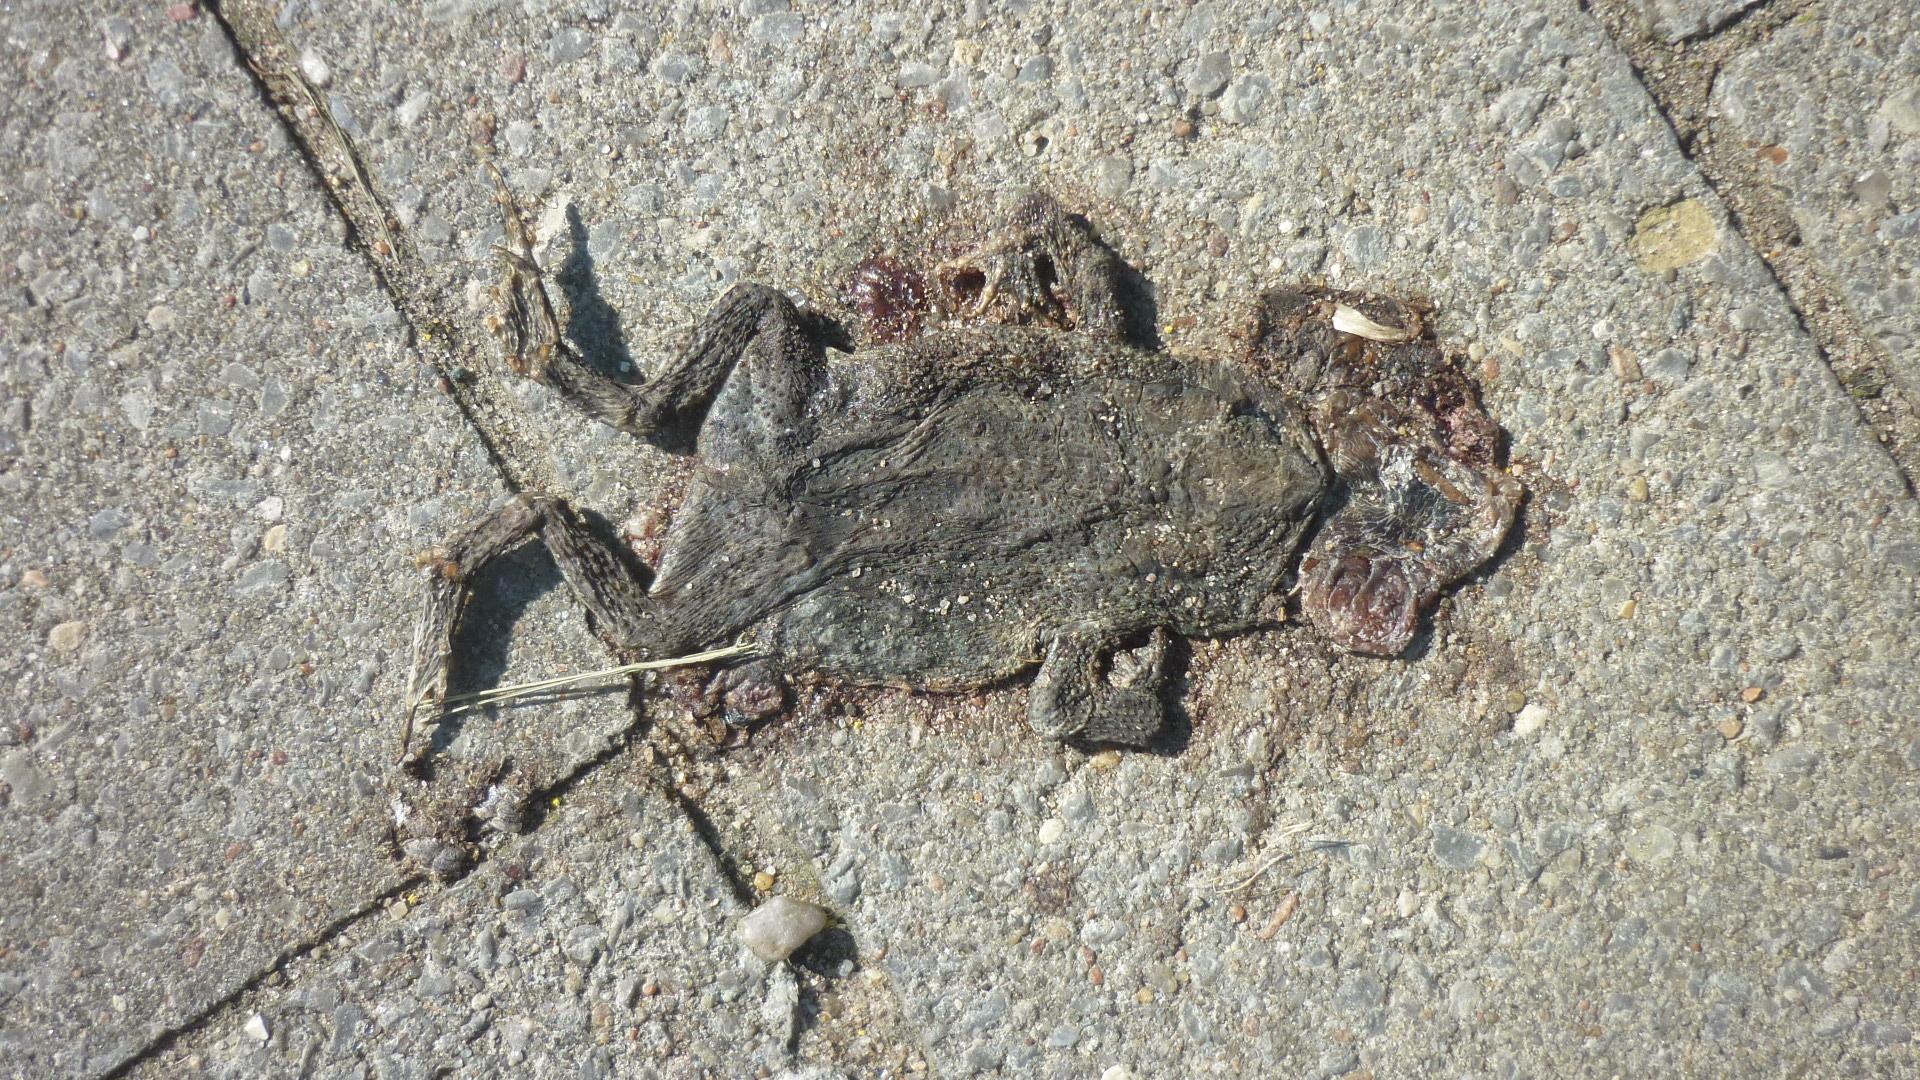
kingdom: Animalia
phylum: Chordata
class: Amphibia
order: Anura
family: Bufonidae
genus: Bufo
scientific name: Bufo bufo
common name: Common toad
